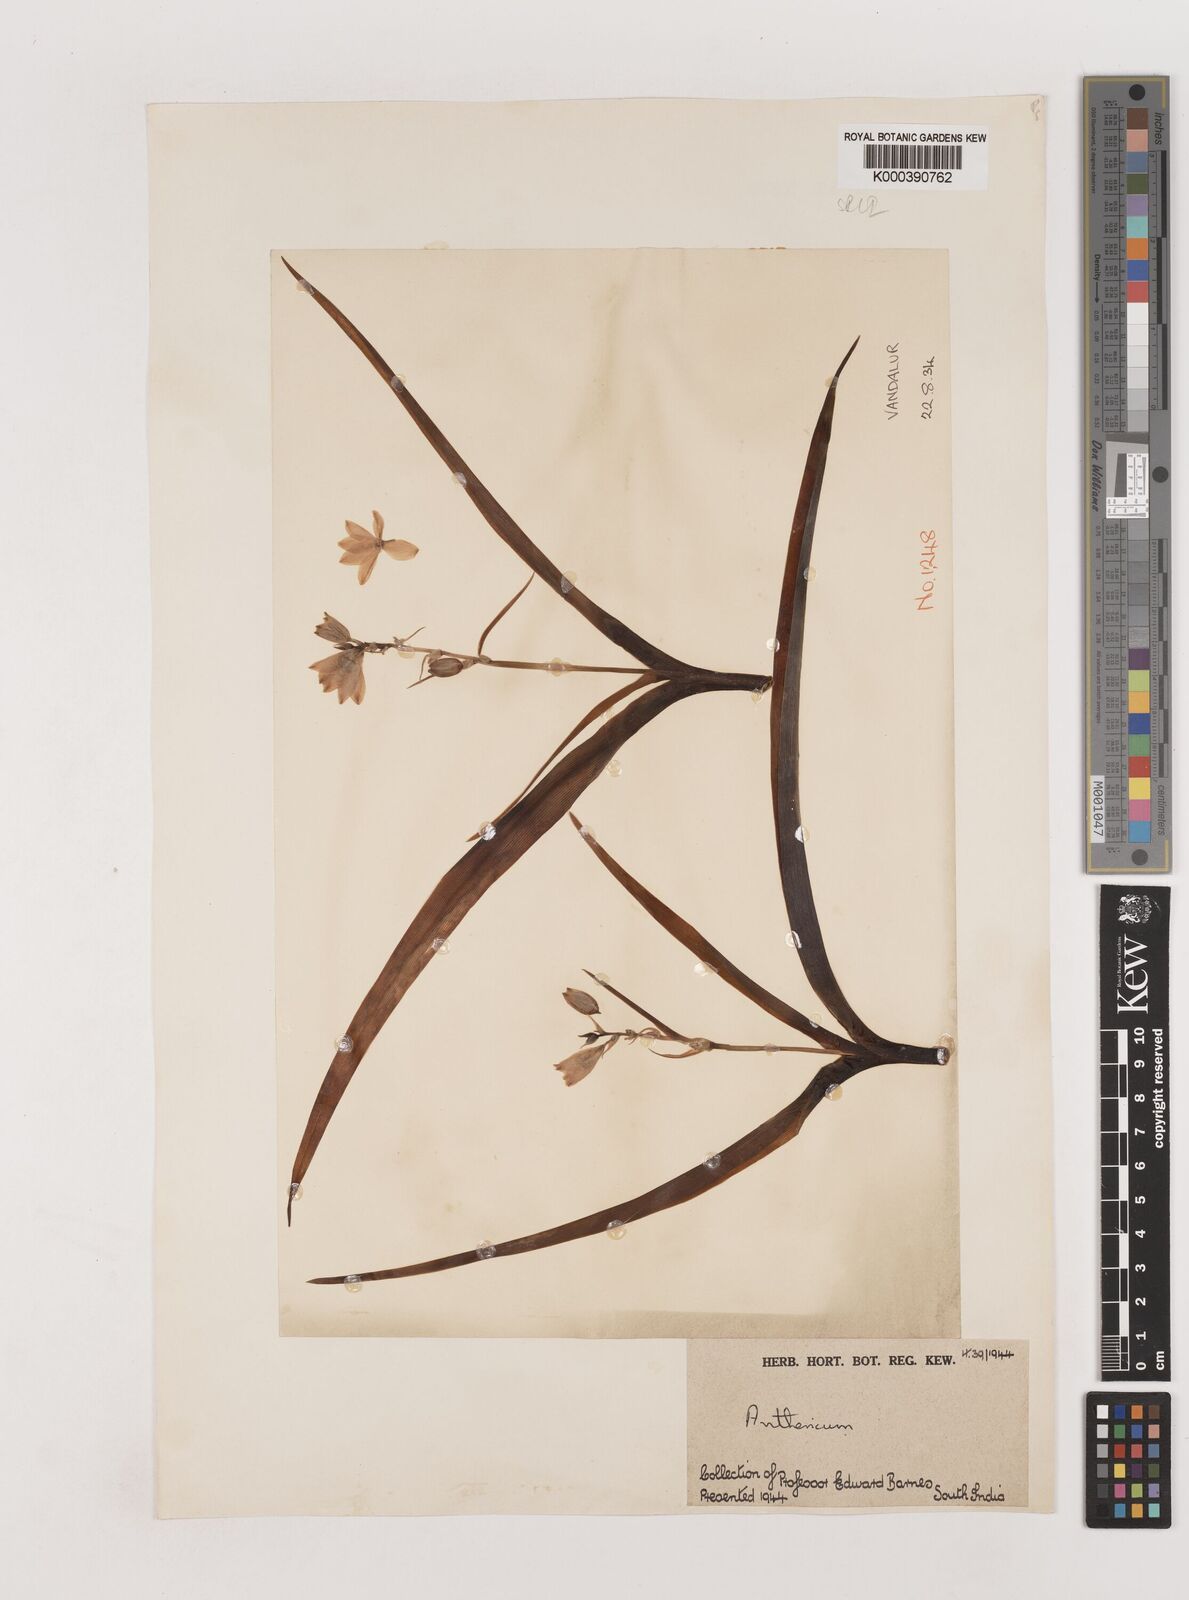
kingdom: Plantae
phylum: Tracheophyta
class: Liliopsida
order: Asparagales
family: Asparagaceae
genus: Chlorophytum
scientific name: Chlorophytum tuberosum
